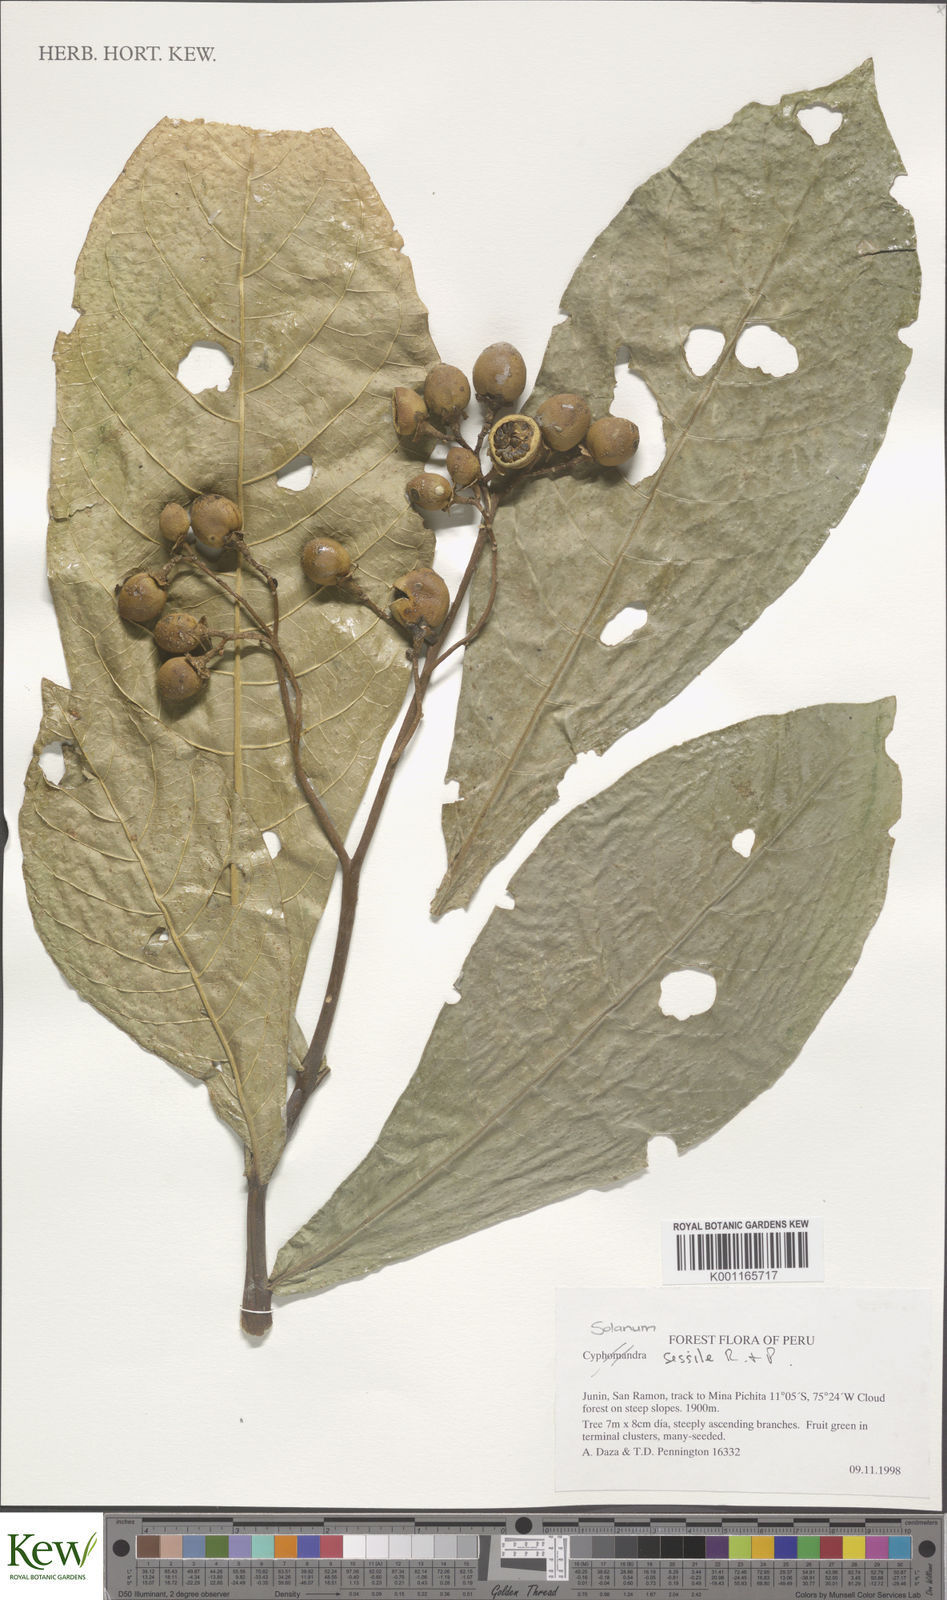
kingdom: Plantae
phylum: Tracheophyta
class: Magnoliopsida
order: Solanales
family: Solanaceae
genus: Solanum
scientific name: Solanum sessile
